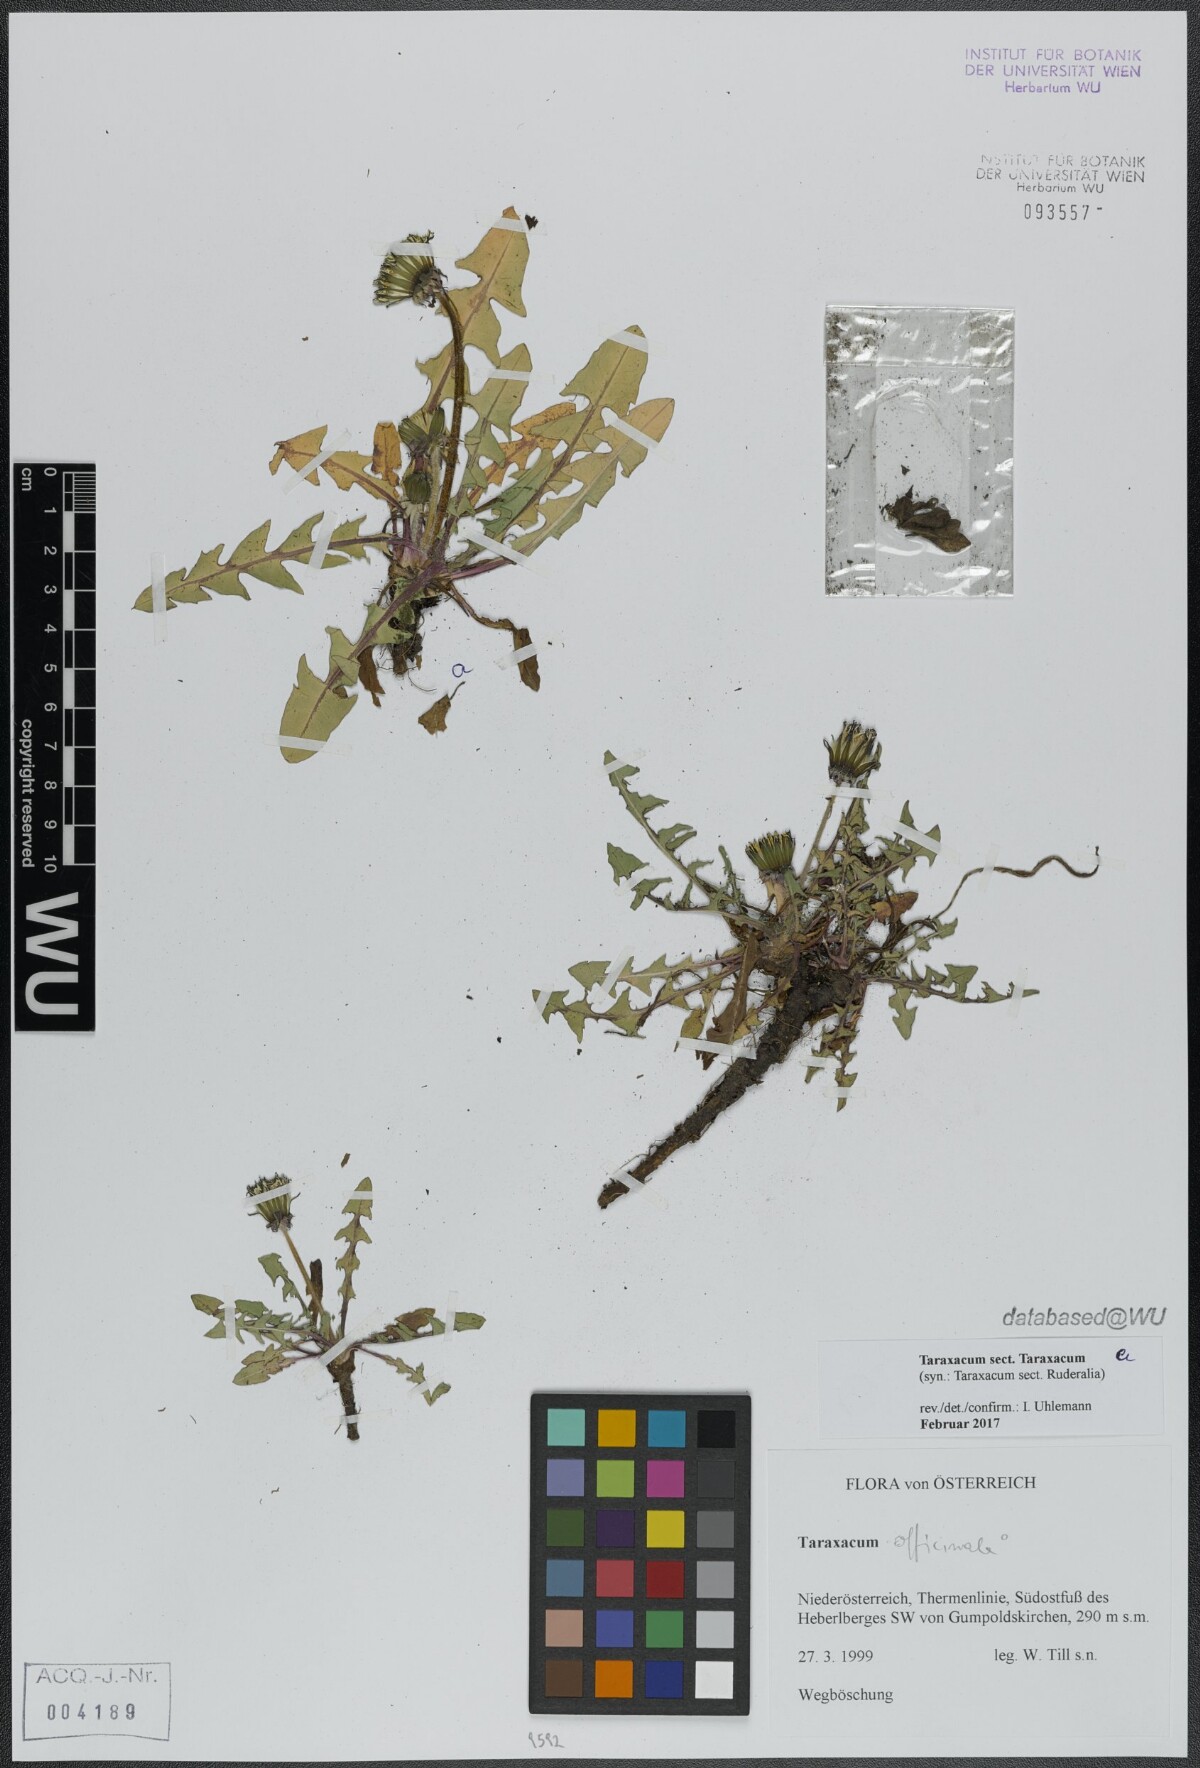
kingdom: Plantae
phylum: Tracheophyta
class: Magnoliopsida
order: Asterales
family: Asteraceae
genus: Taraxacum
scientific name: Taraxacum
